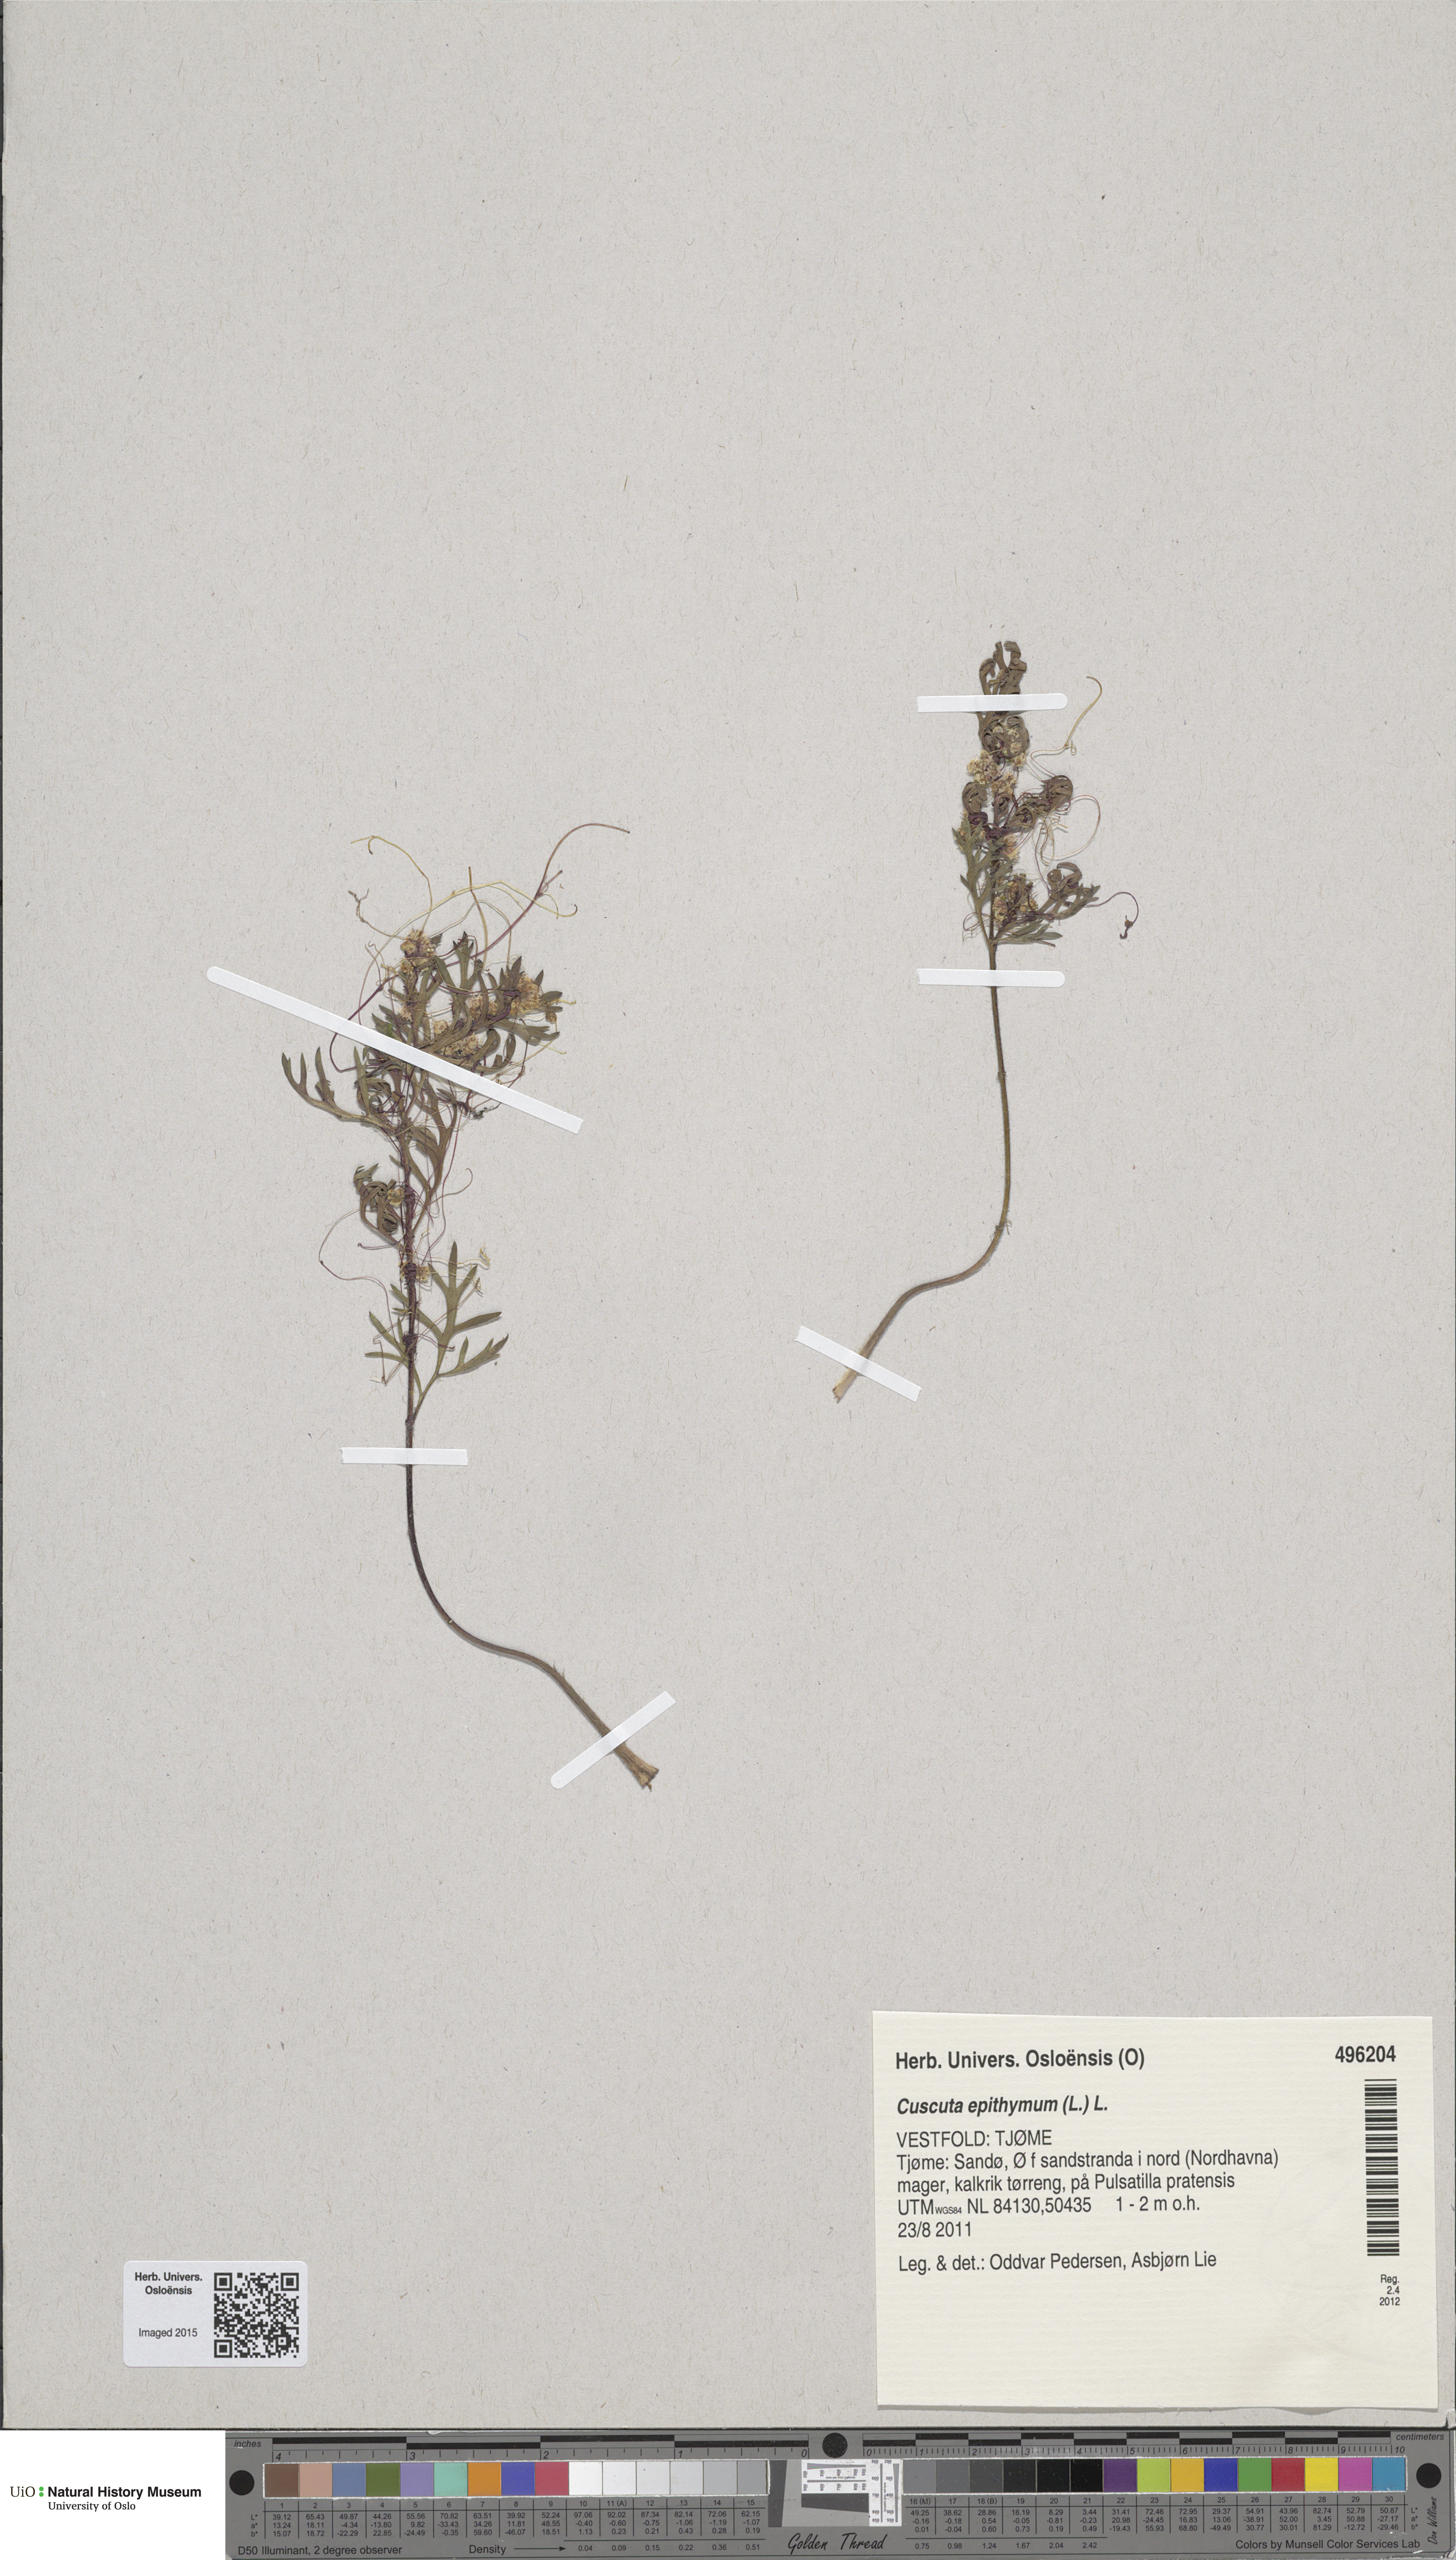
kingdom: Plantae
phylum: Tracheophyta
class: Magnoliopsida
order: Solanales
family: Convolvulaceae
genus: Cuscuta
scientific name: Cuscuta epithymum
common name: Clover dodder
